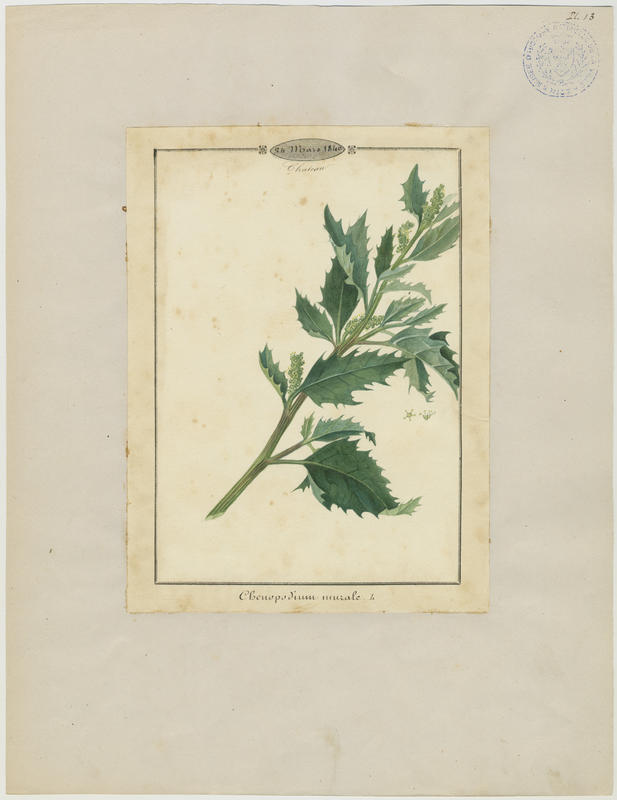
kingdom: Plantae
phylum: Tracheophyta
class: Magnoliopsida
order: Caryophyllales
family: Amaranthaceae
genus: Chenopodiastrum
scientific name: Chenopodiastrum murale
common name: Sowbane
